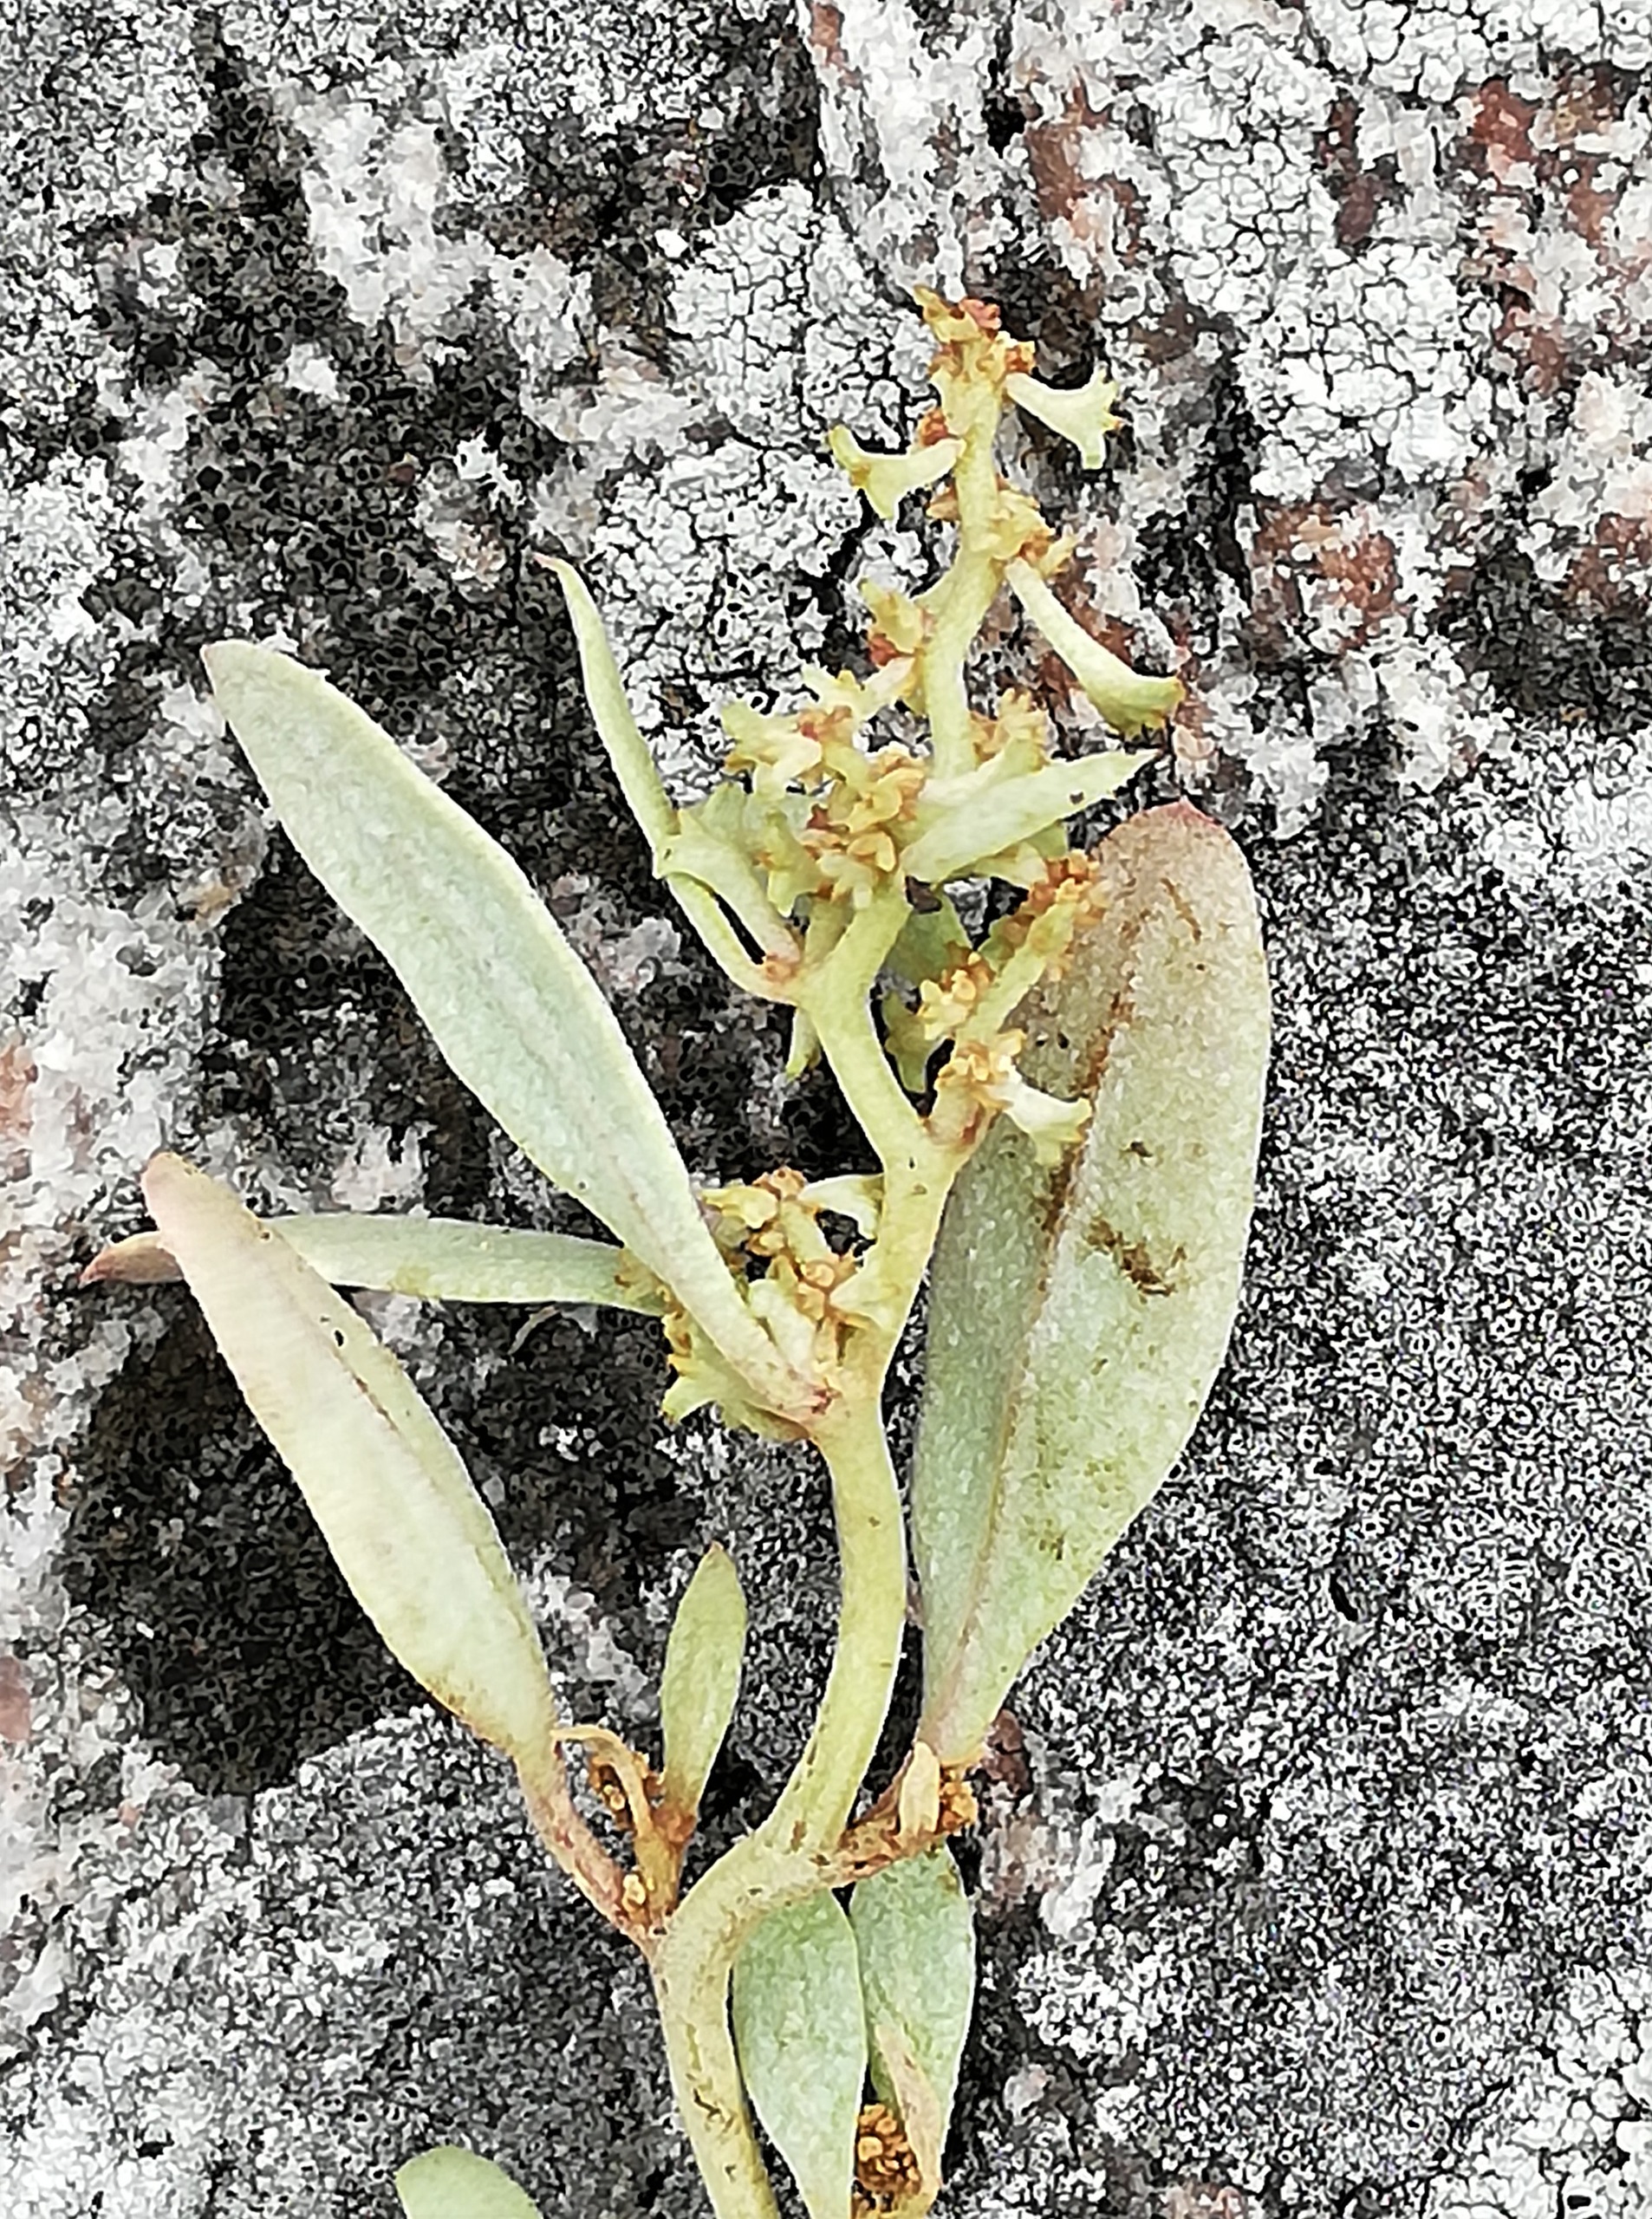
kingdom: Plantae
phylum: Tracheophyta
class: Magnoliopsida
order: Caryophyllales
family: Amaranthaceae
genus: Halimione
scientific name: Halimione pedunculata
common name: Stilket kilebæger
